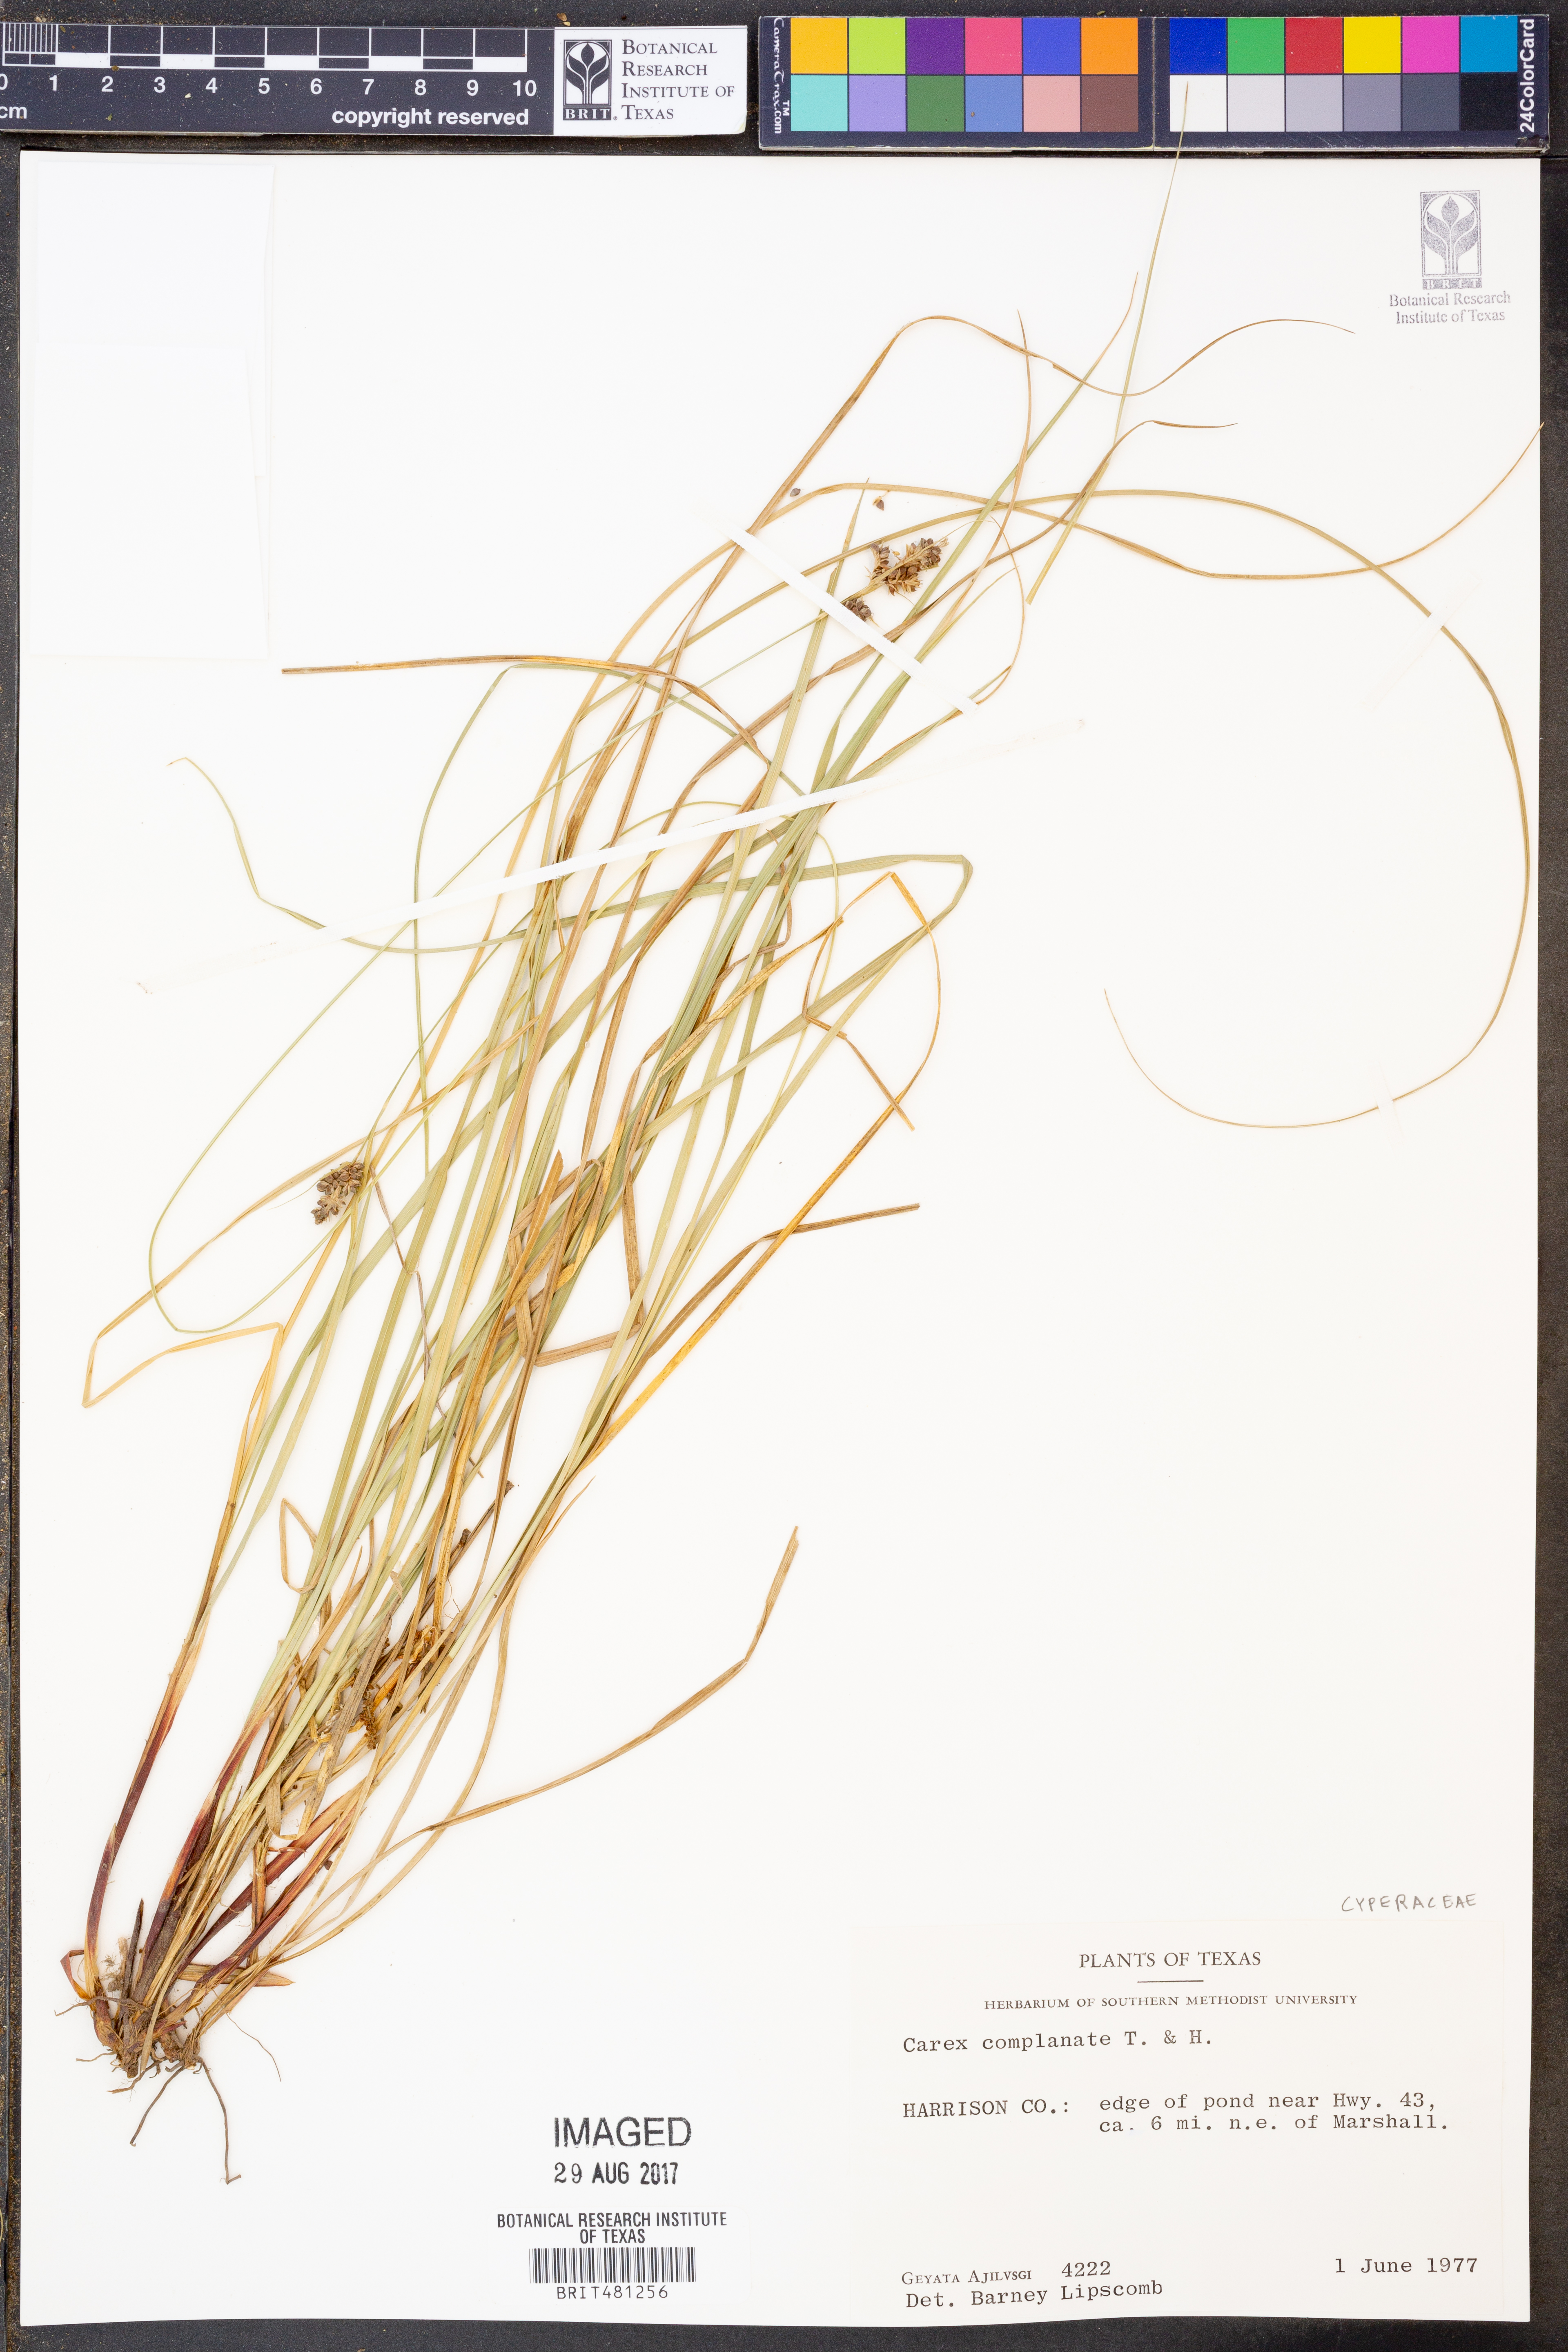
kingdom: Plantae
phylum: Tracheophyta
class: Liliopsida
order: Poales
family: Cyperaceae
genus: Carex
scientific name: Carex complanata
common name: Hirsute sedge
